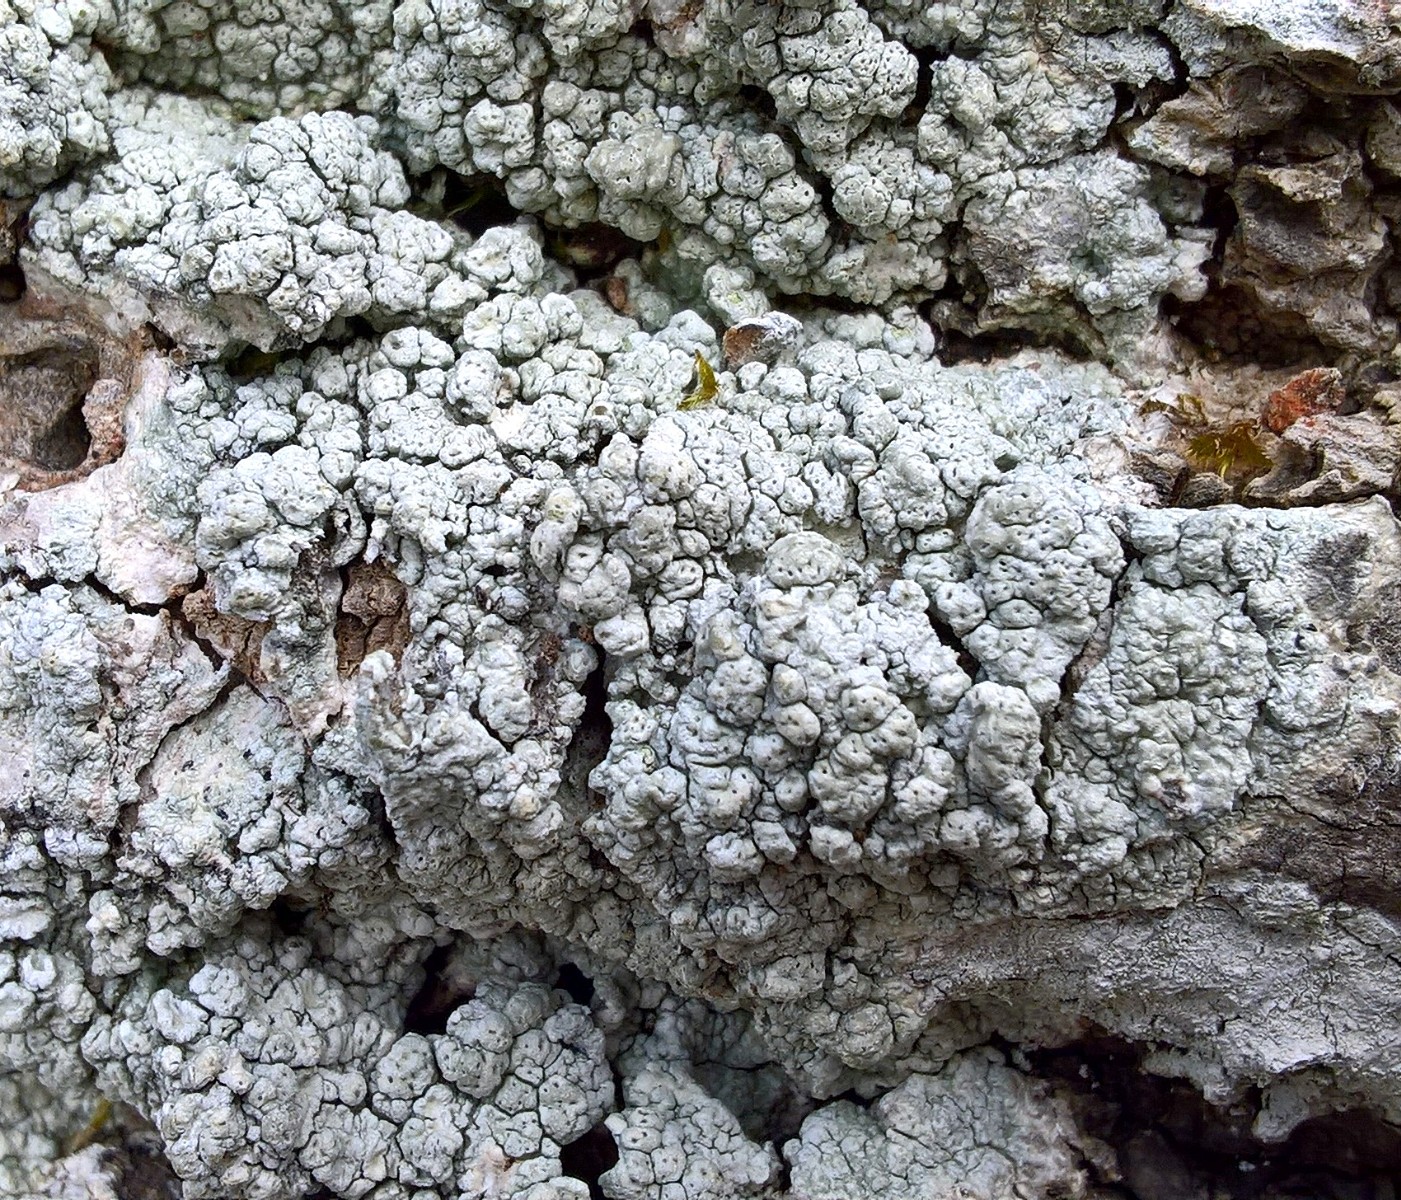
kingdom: Fungi
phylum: Ascomycota
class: Lecanoromycetes
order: Pertusariales
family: Pertusariaceae
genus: Pertusaria
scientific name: Pertusaria pertusa
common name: almindelig prikvortelav
